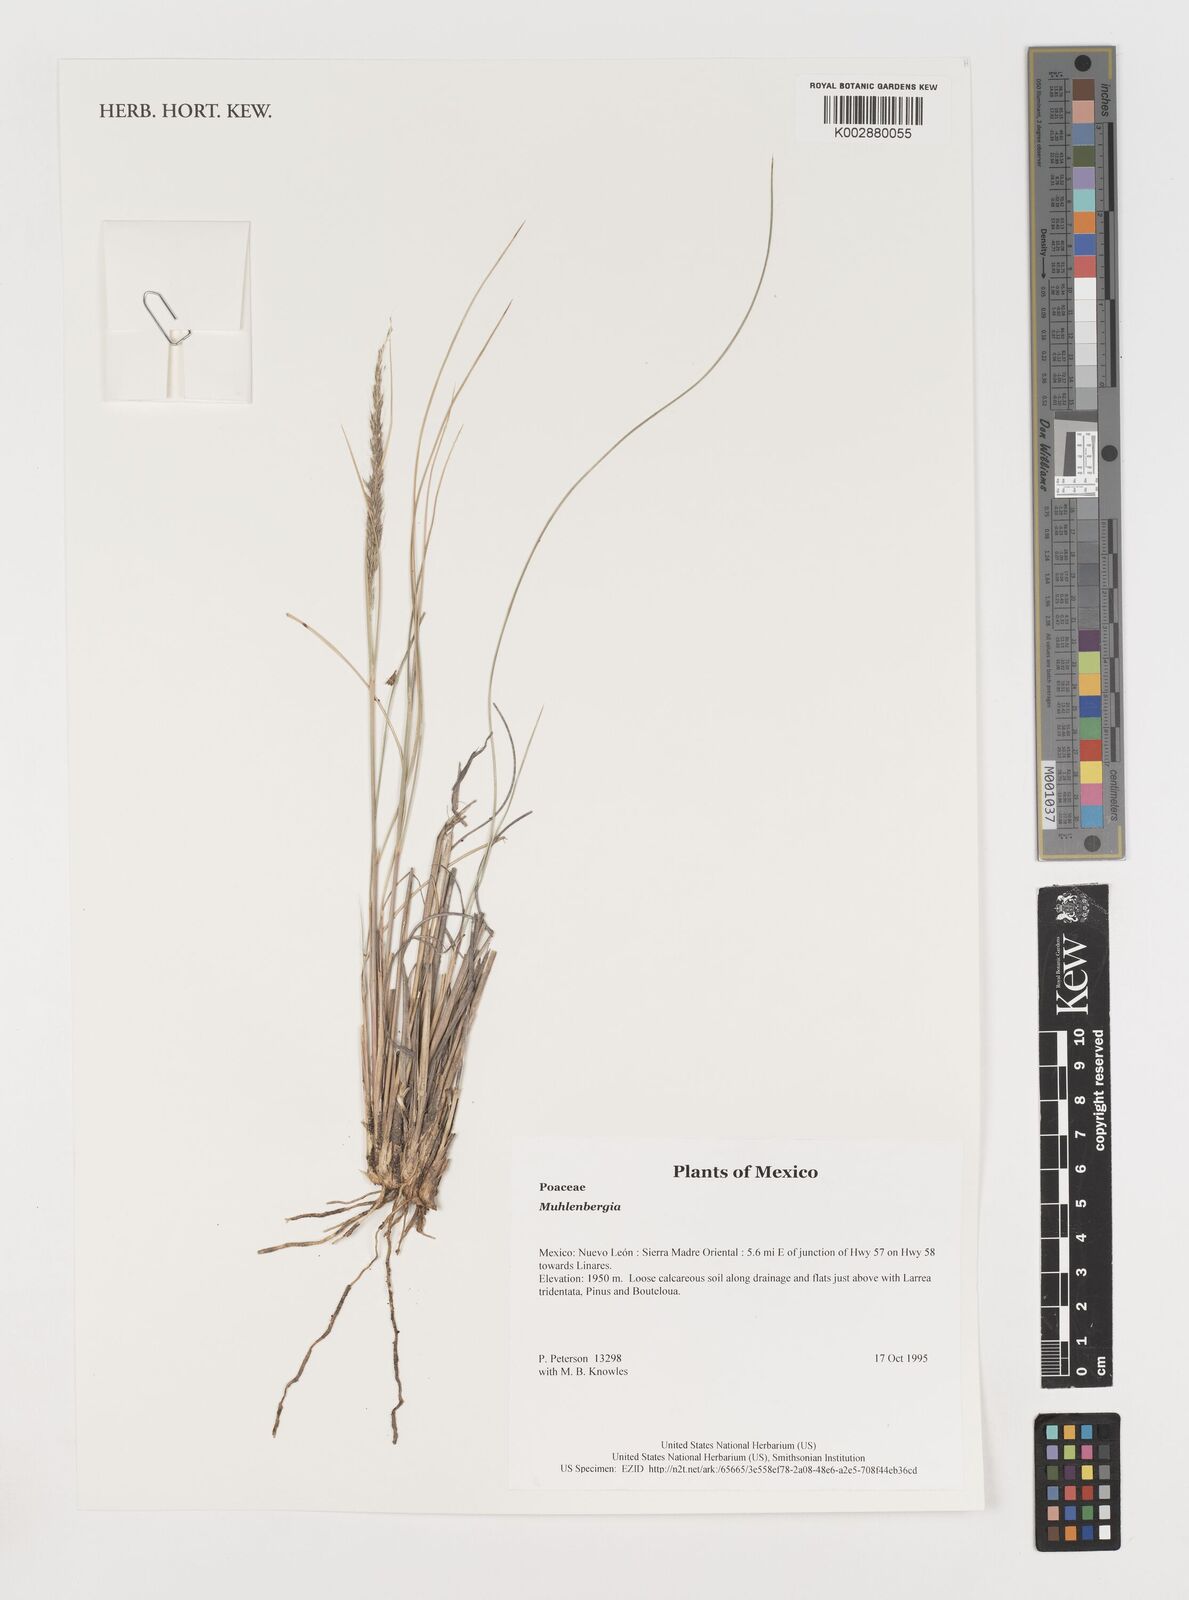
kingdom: Plantae
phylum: Tracheophyta
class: Liliopsida
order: Poales
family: Poaceae
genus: Muhlenbergia
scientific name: Muhlenbergia
